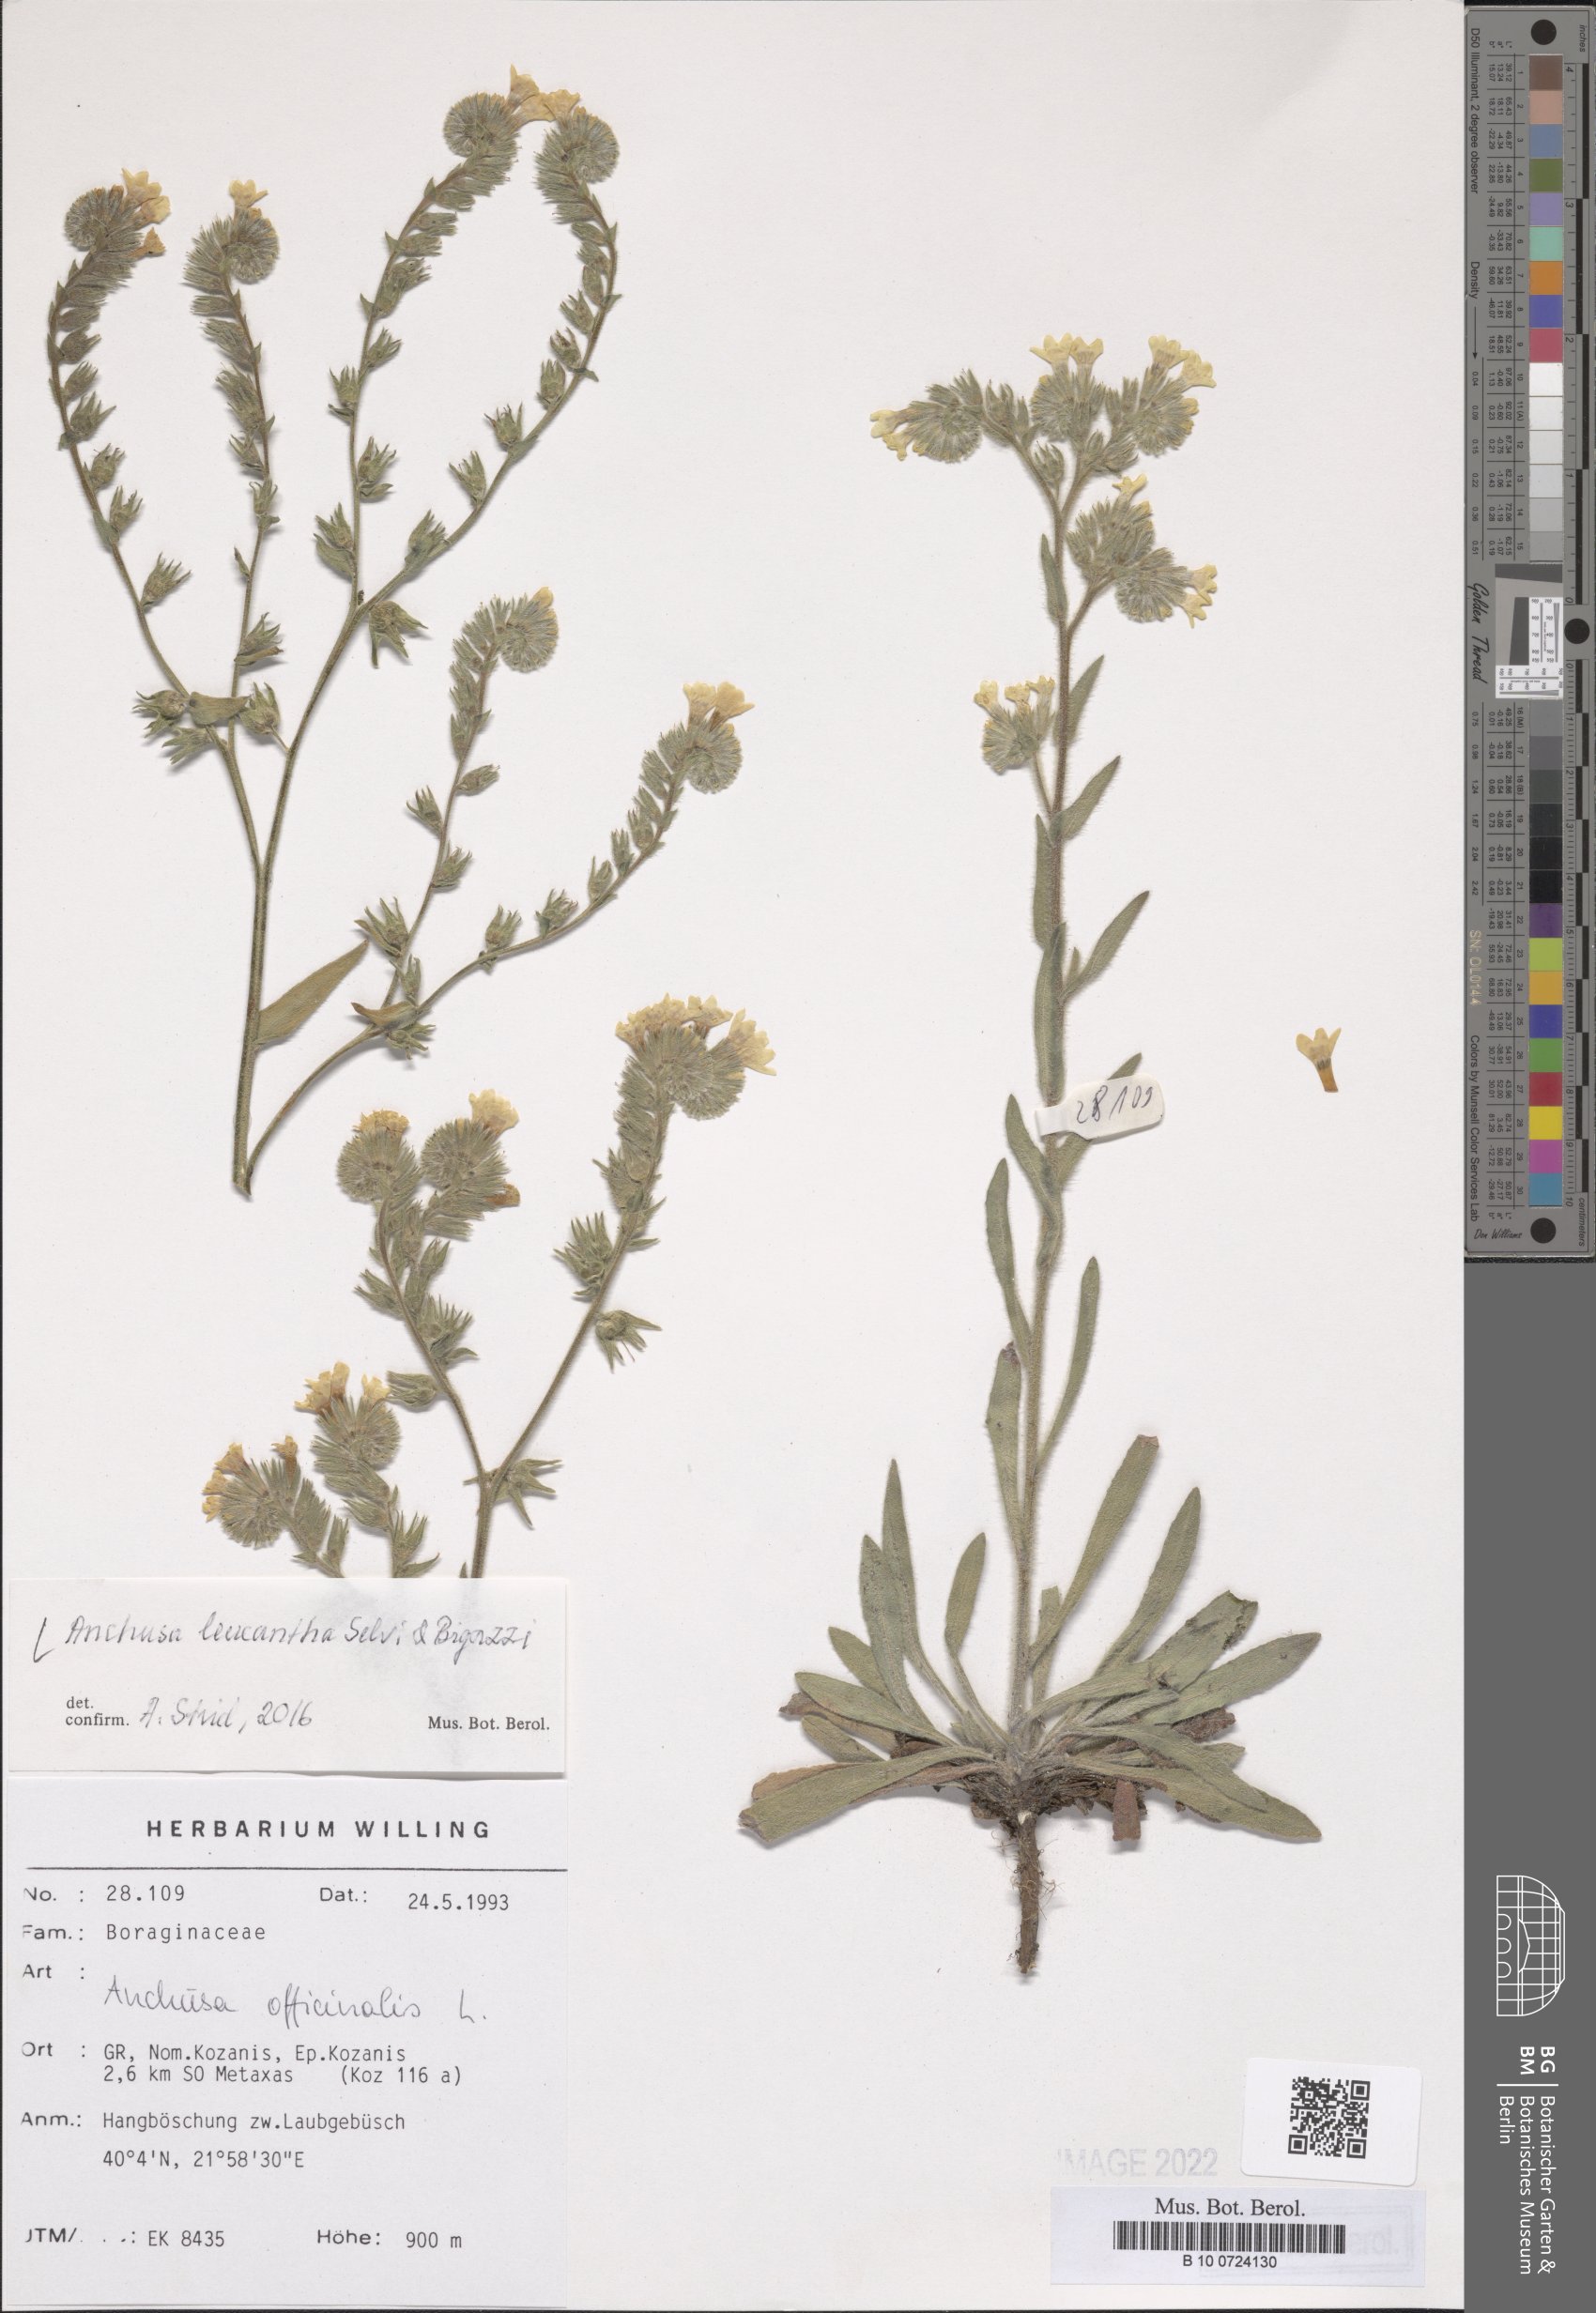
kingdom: Plantae
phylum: Tracheophyta
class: Magnoliopsida
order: Boraginales
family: Boraginaceae
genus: Anchusa
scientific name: Anchusa officinalis
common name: Alkanet
